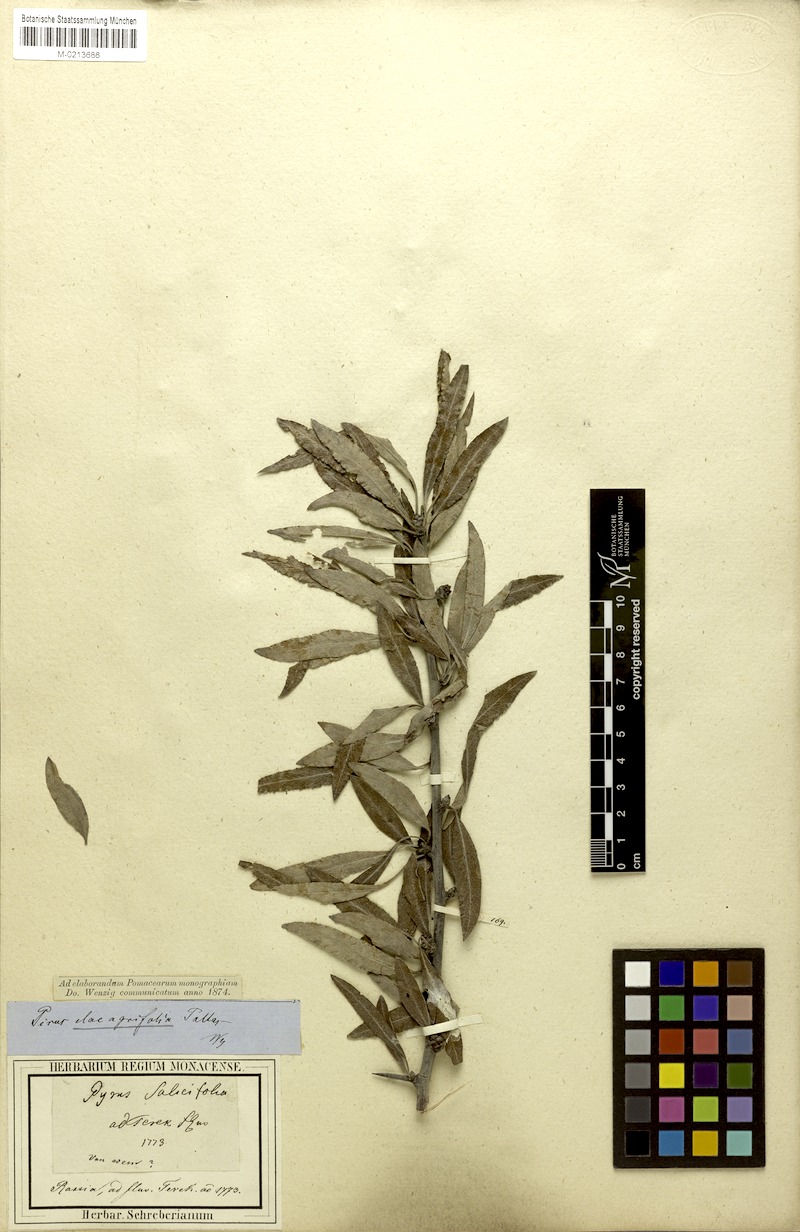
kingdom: Plantae
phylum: Tracheophyta
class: Magnoliopsida
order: Rosales
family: Rosaceae
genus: Pyrus
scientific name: Pyrus elaeagnifolia
